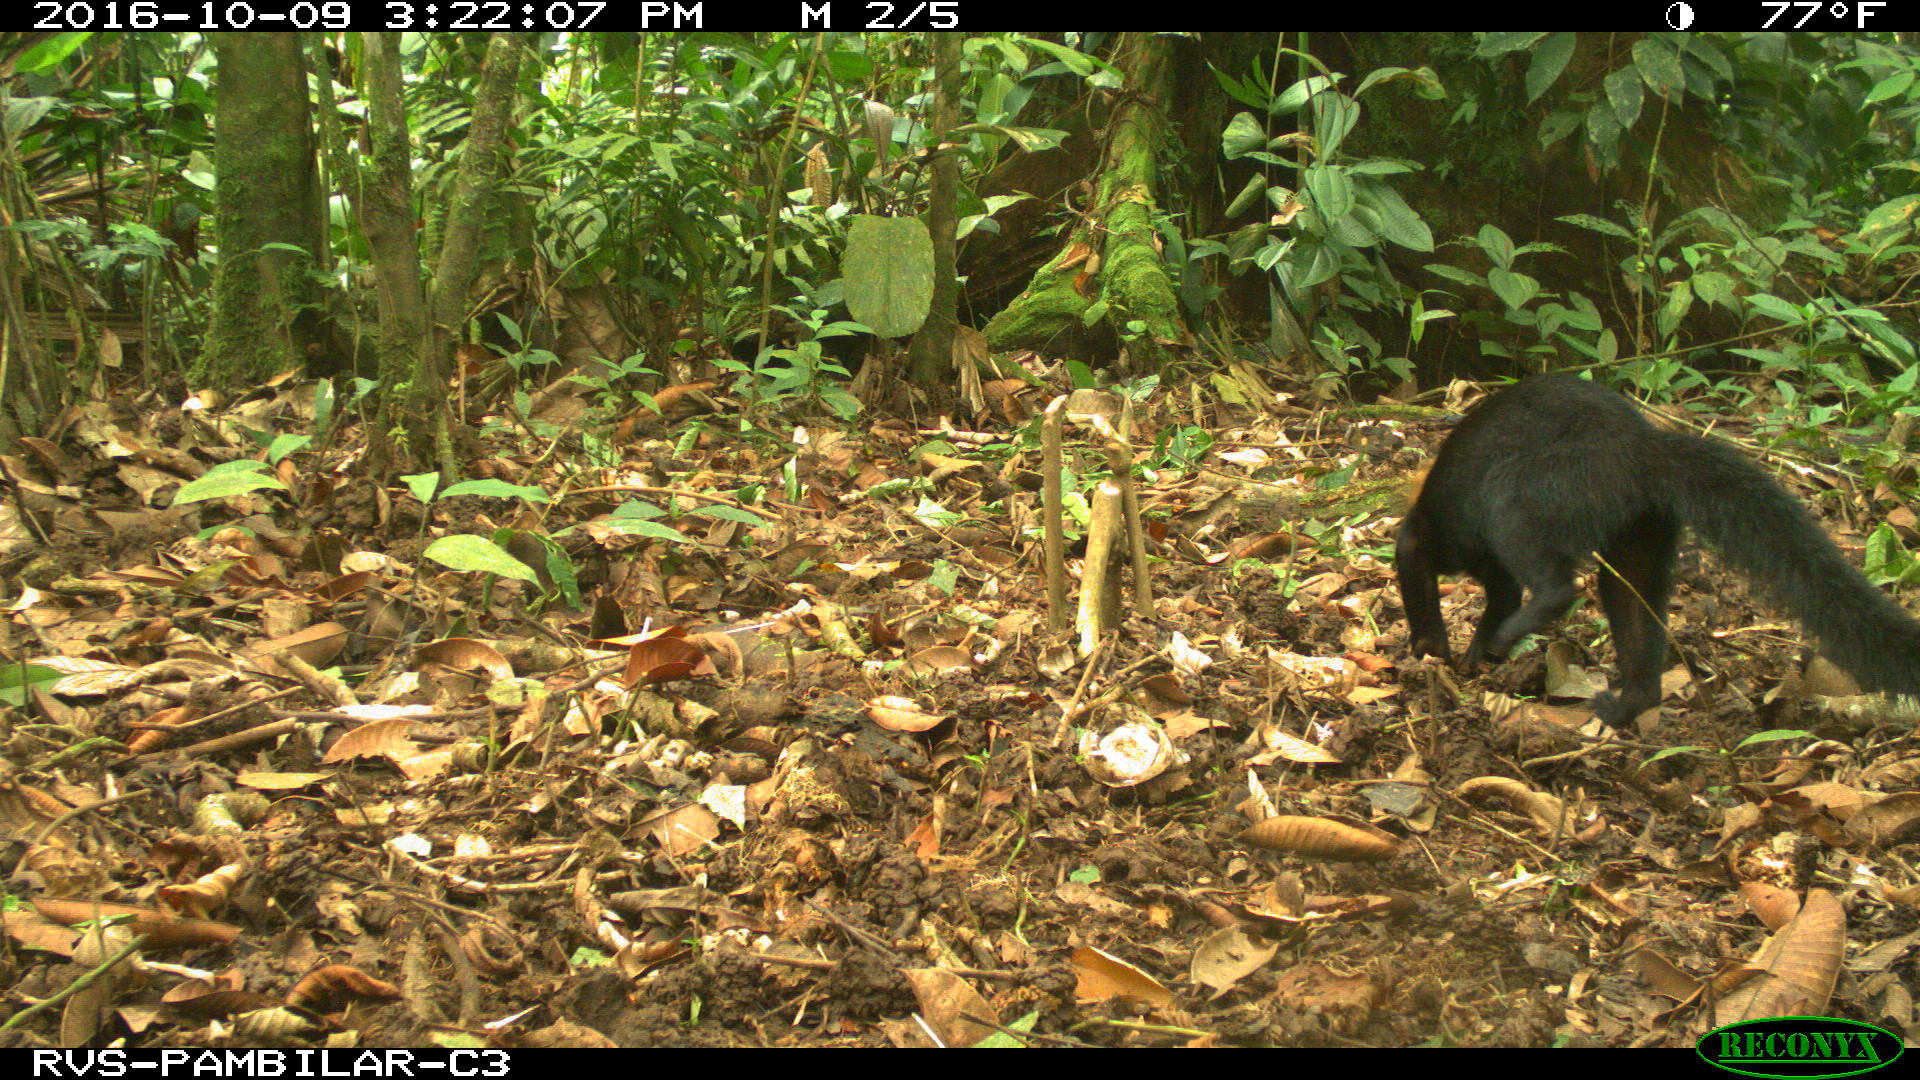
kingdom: Animalia
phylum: Chordata
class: Mammalia
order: Carnivora
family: Mustelidae
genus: Eira
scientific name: Eira barbara
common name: Tayra
